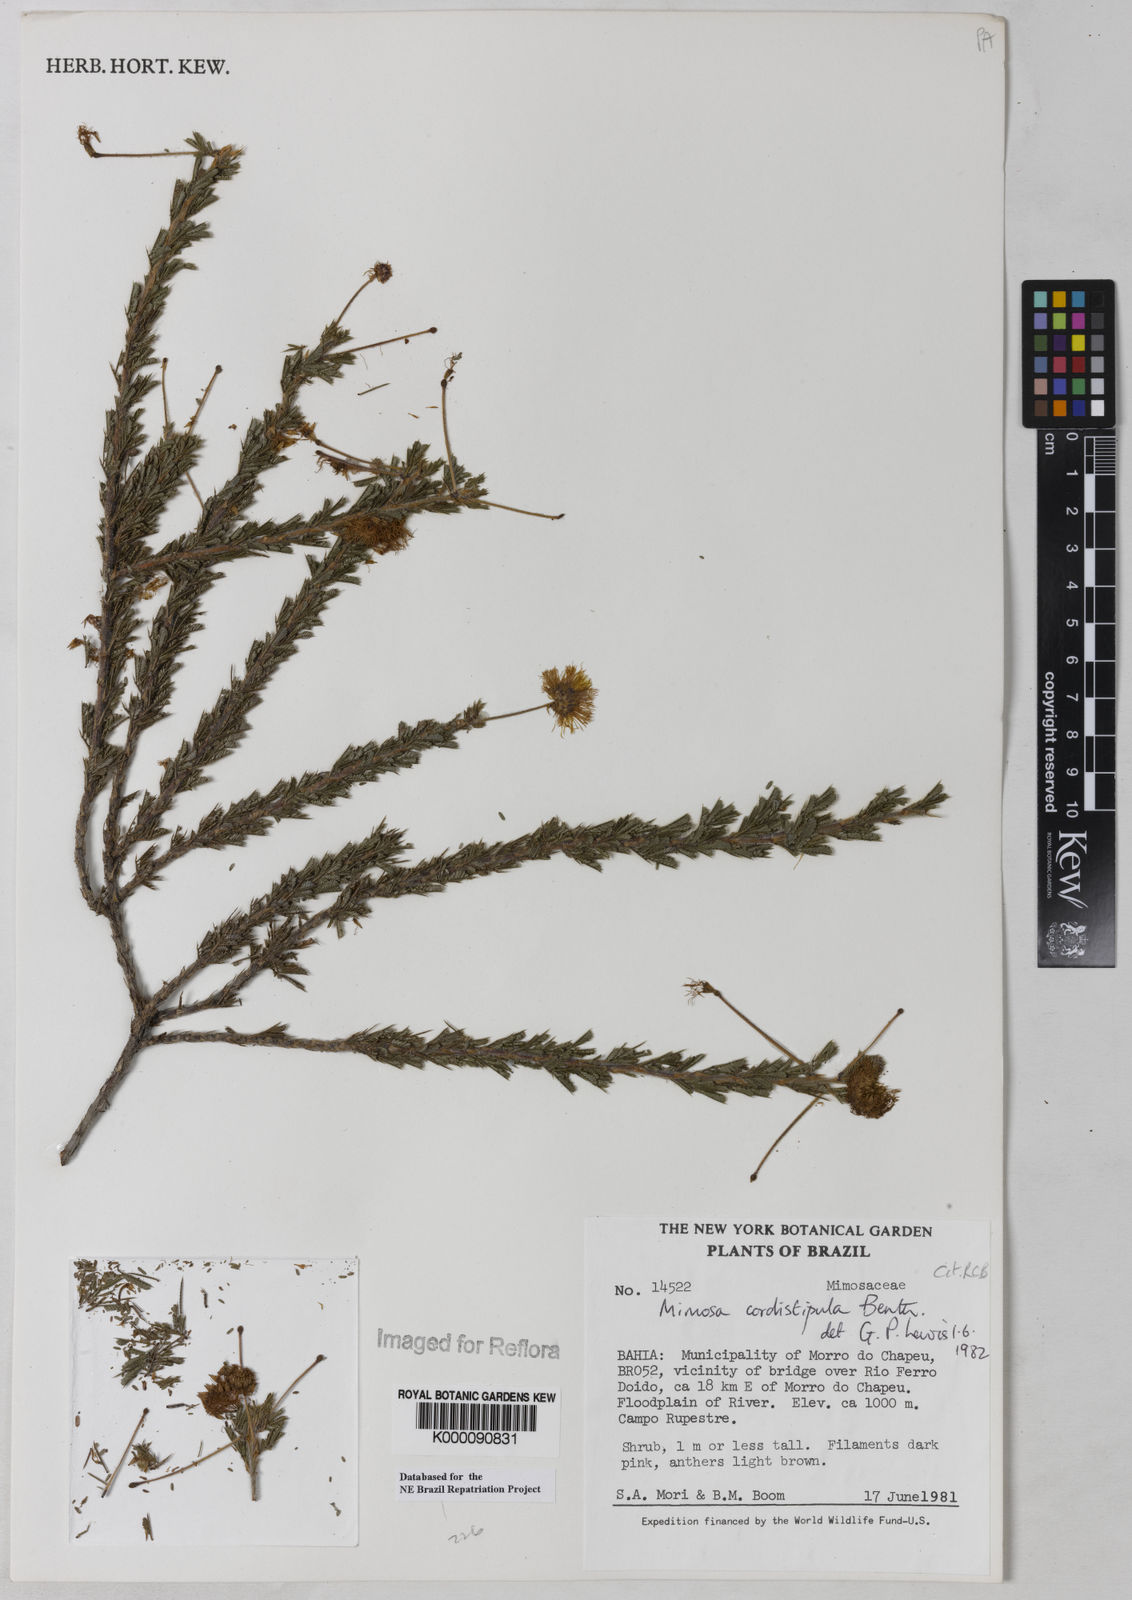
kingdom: Plantae
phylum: Tracheophyta
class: Magnoliopsida
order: Fabales
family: Fabaceae
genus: Mimosa
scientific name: Mimosa cordistipula
